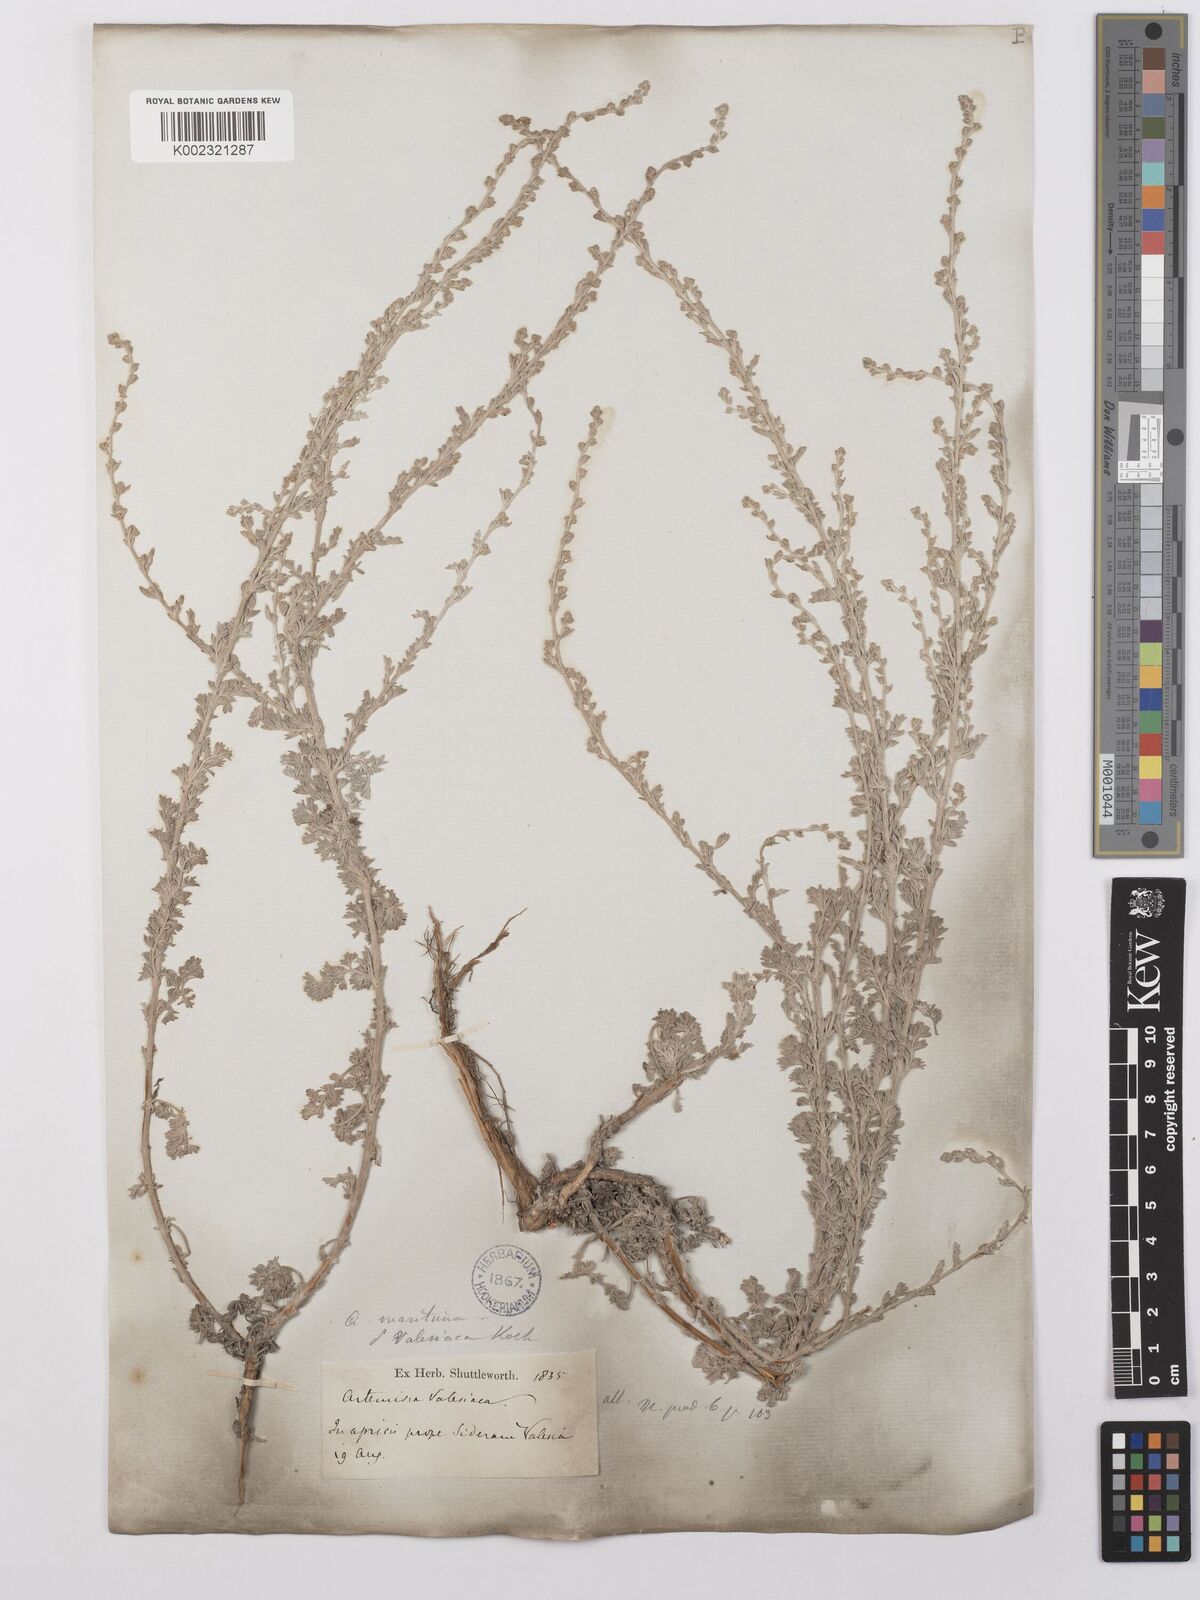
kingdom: Plantae
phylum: Tracheophyta
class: Magnoliopsida
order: Asterales
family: Asteraceae
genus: Artemisia
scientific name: Artemisia vallesiaca
